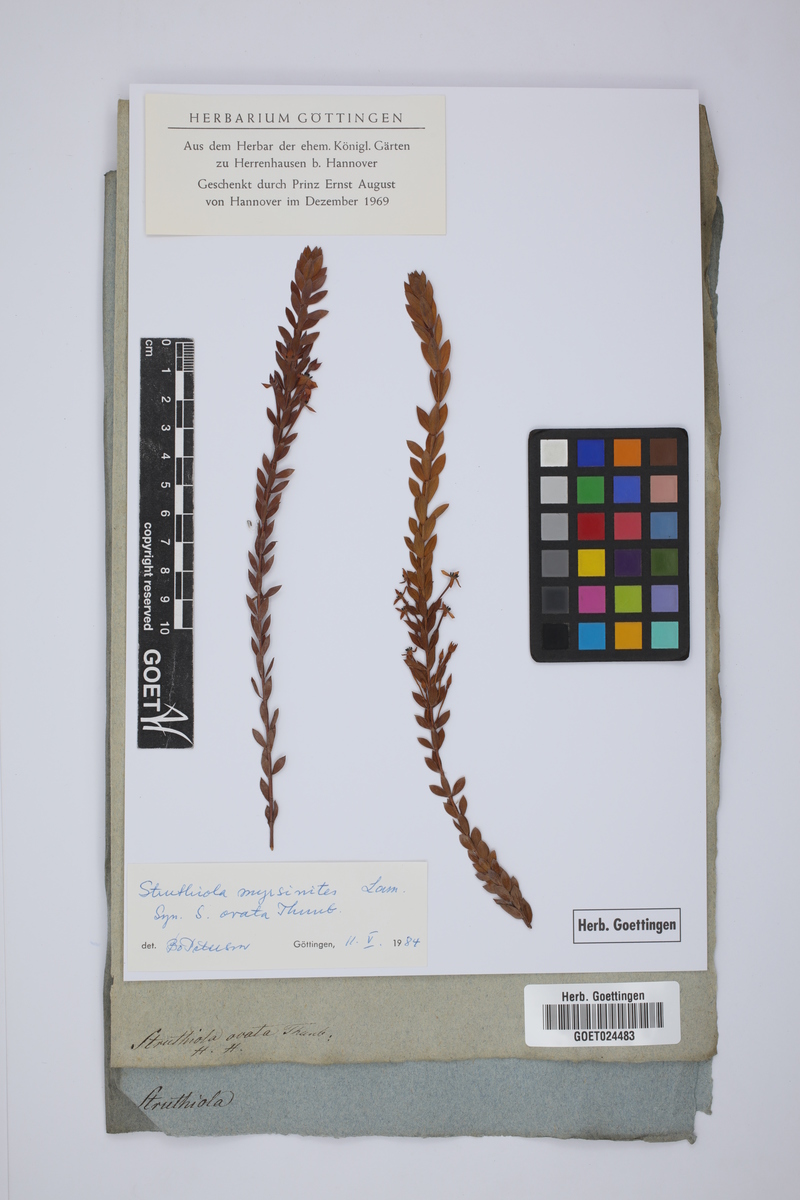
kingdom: Plantae
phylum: Tracheophyta
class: Magnoliopsida
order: Malvales
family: Thymelaeaceae
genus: Struthiola
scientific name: Struthiola myrsinites
